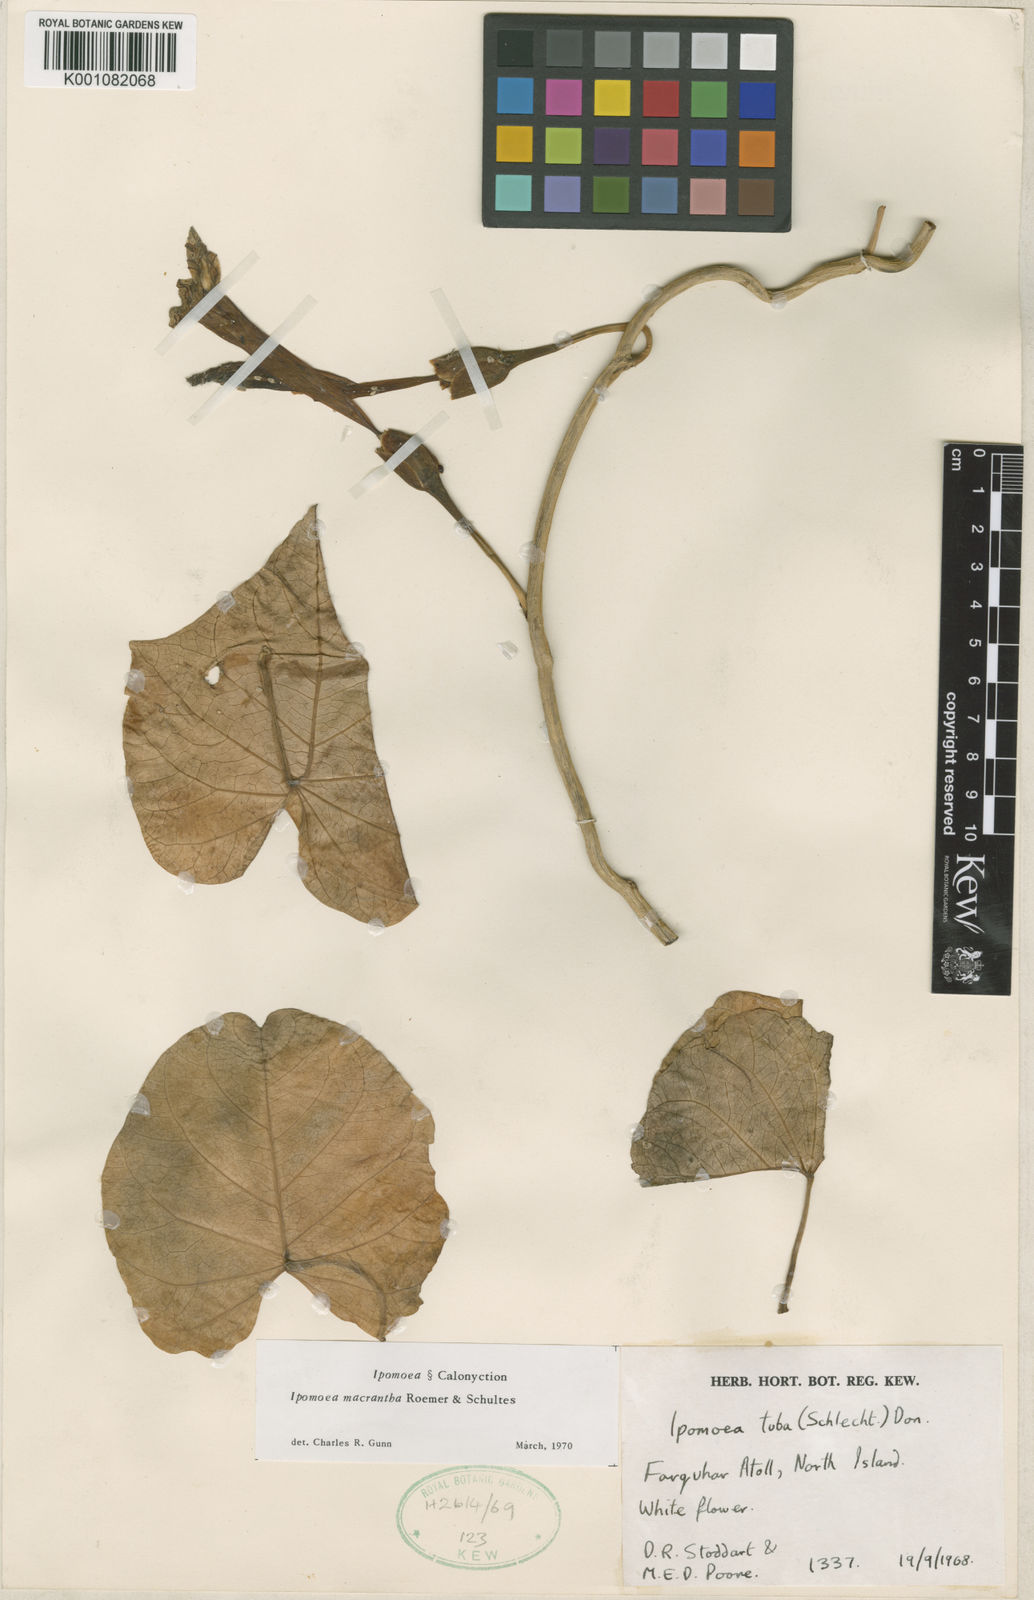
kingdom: Plantae
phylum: Tracheophyta
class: Magnoliopsida
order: Solanales
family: Convolvulaceae
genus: Ipomoea
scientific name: Ipomoea violacea
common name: Beach moonflower
